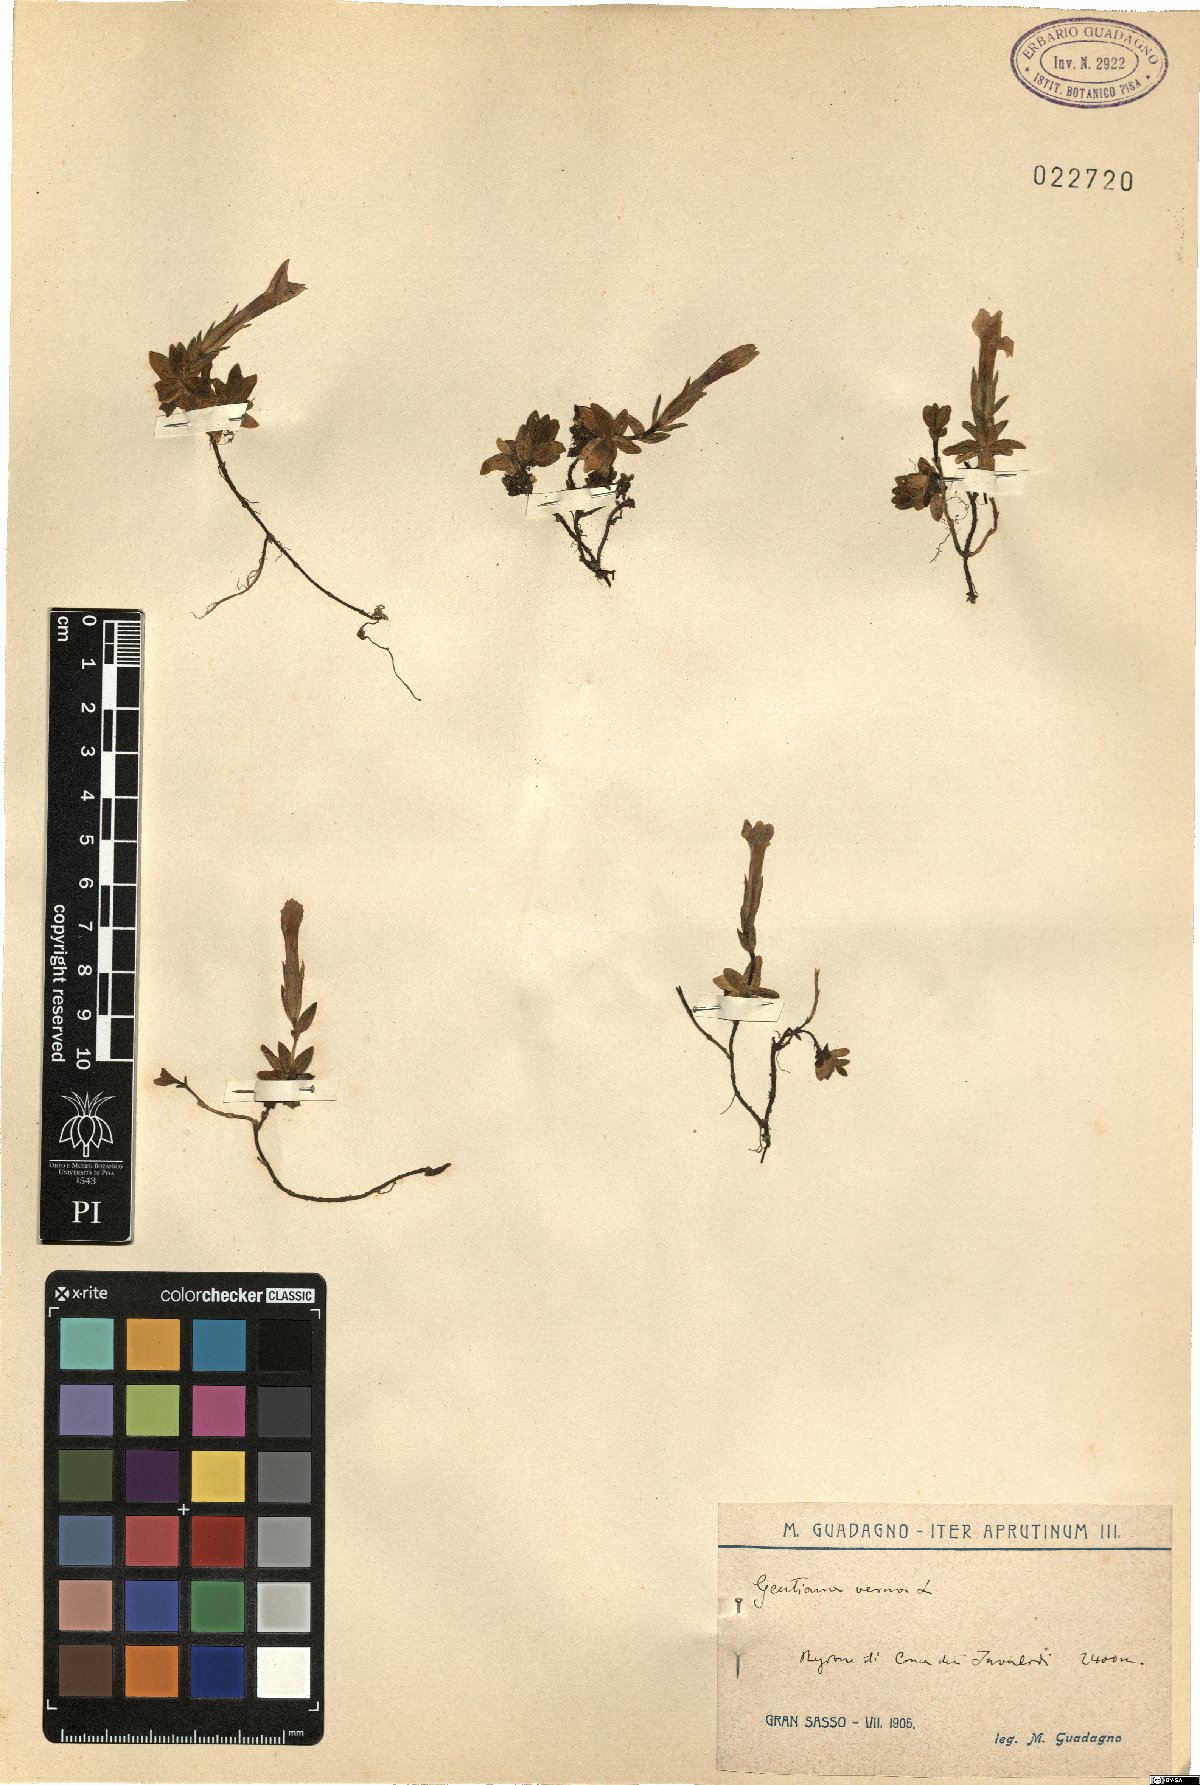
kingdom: Plantae
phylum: Tracheophyta
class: Magnoliopsida
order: Gentianales
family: Gentianaceae
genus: Gentiana
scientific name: Gentiana verna
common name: Spring gentian
